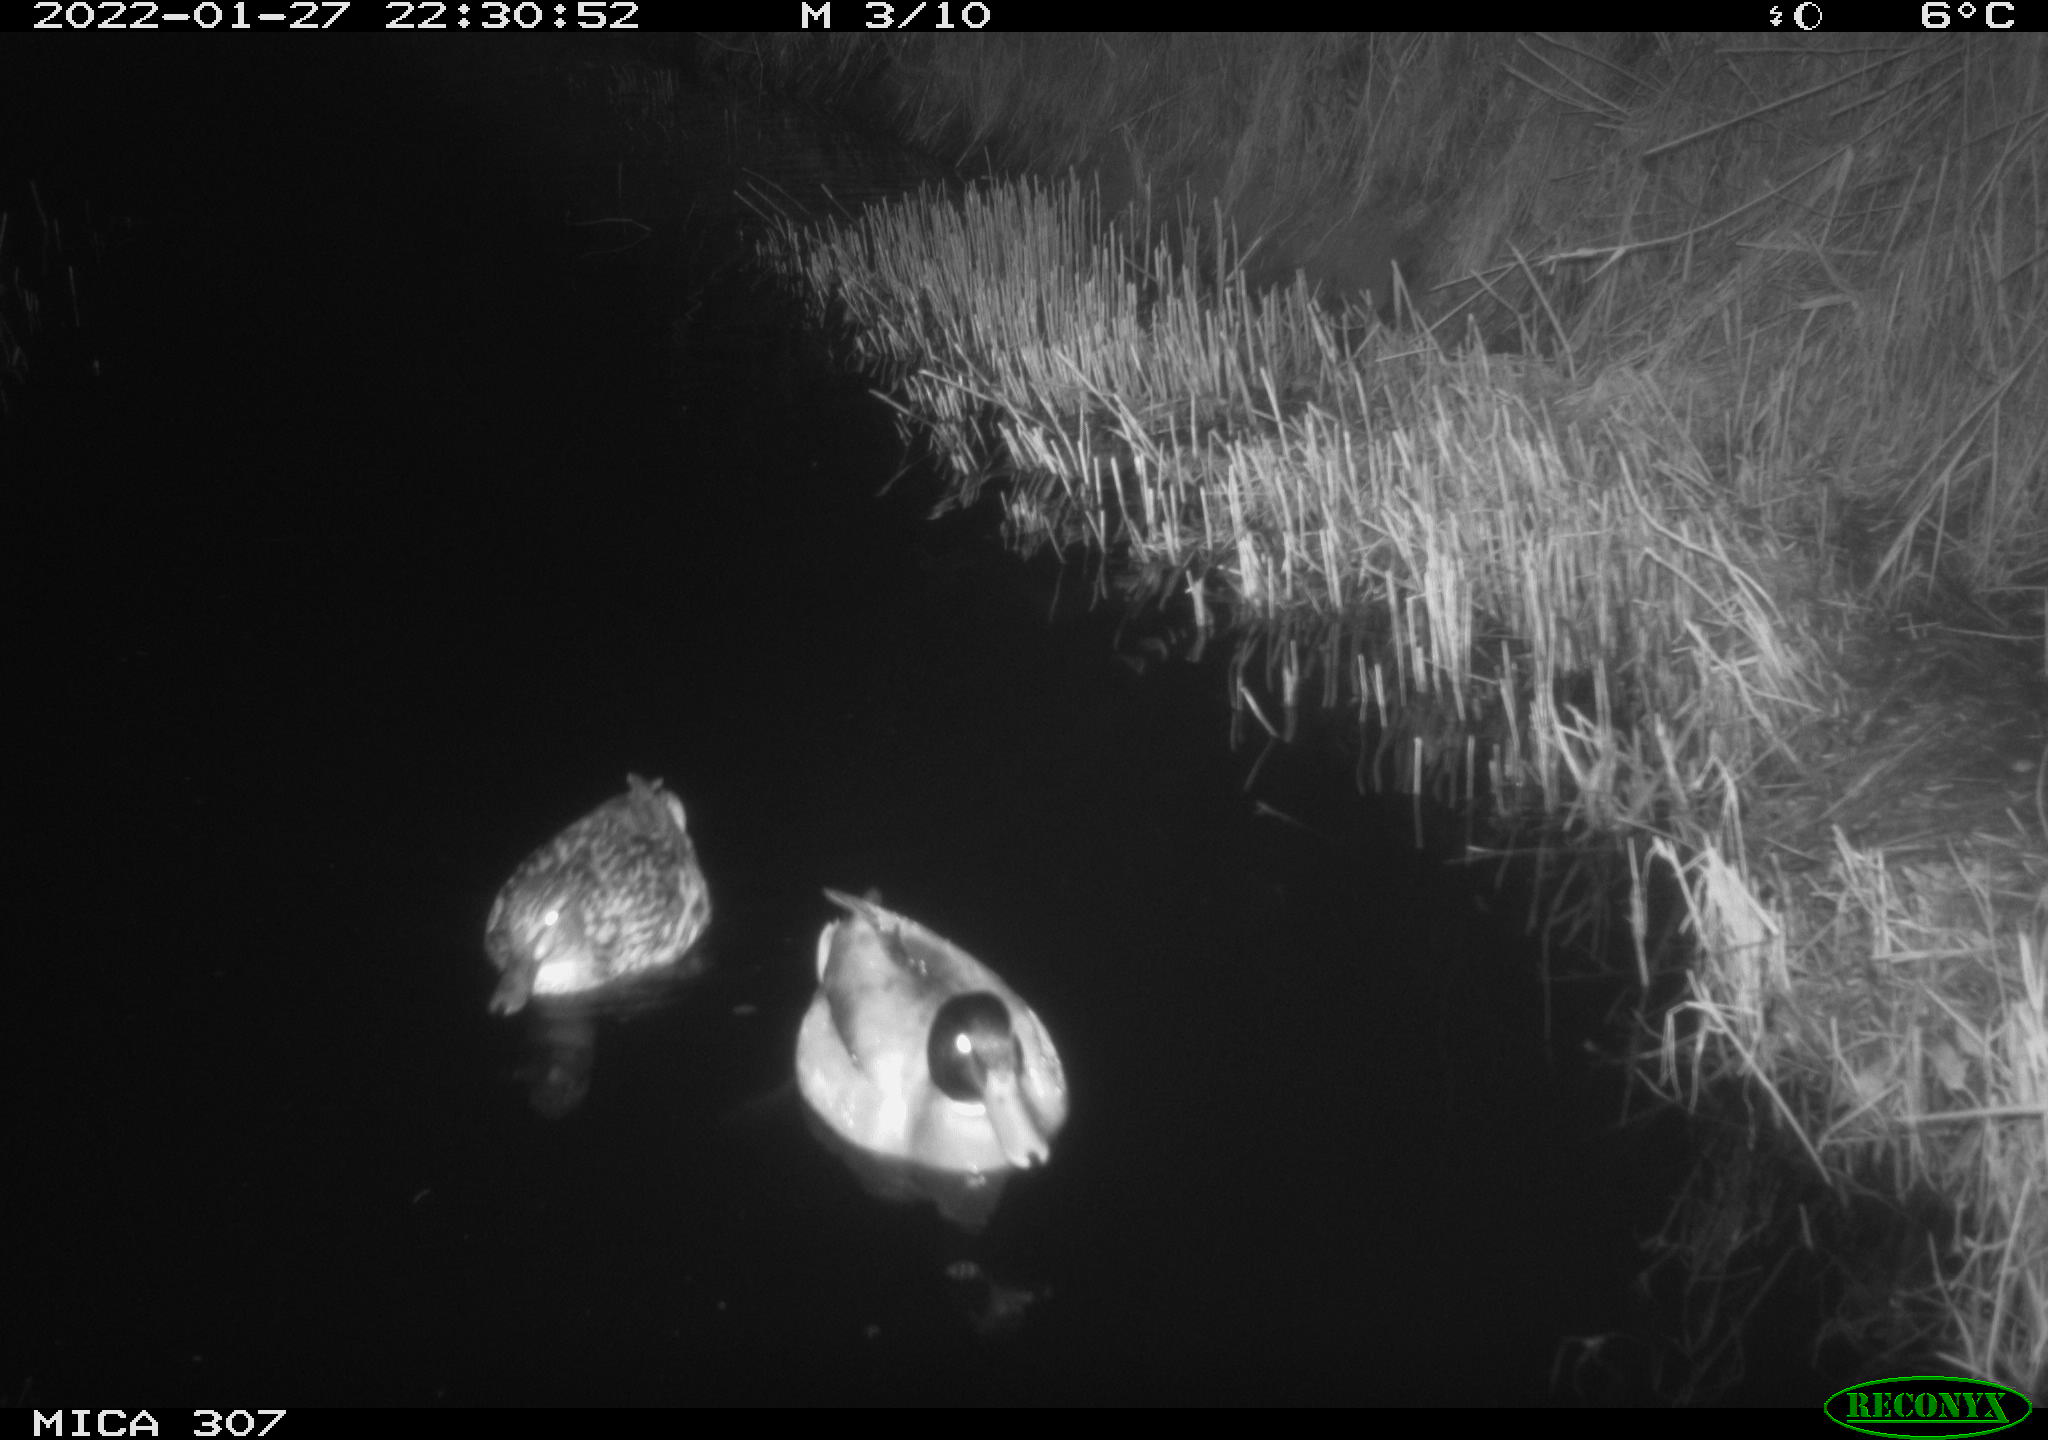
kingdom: Animalia
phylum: Chordata
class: Aves
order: Anseriformes
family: Anatidae
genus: Anas
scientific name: Anas
